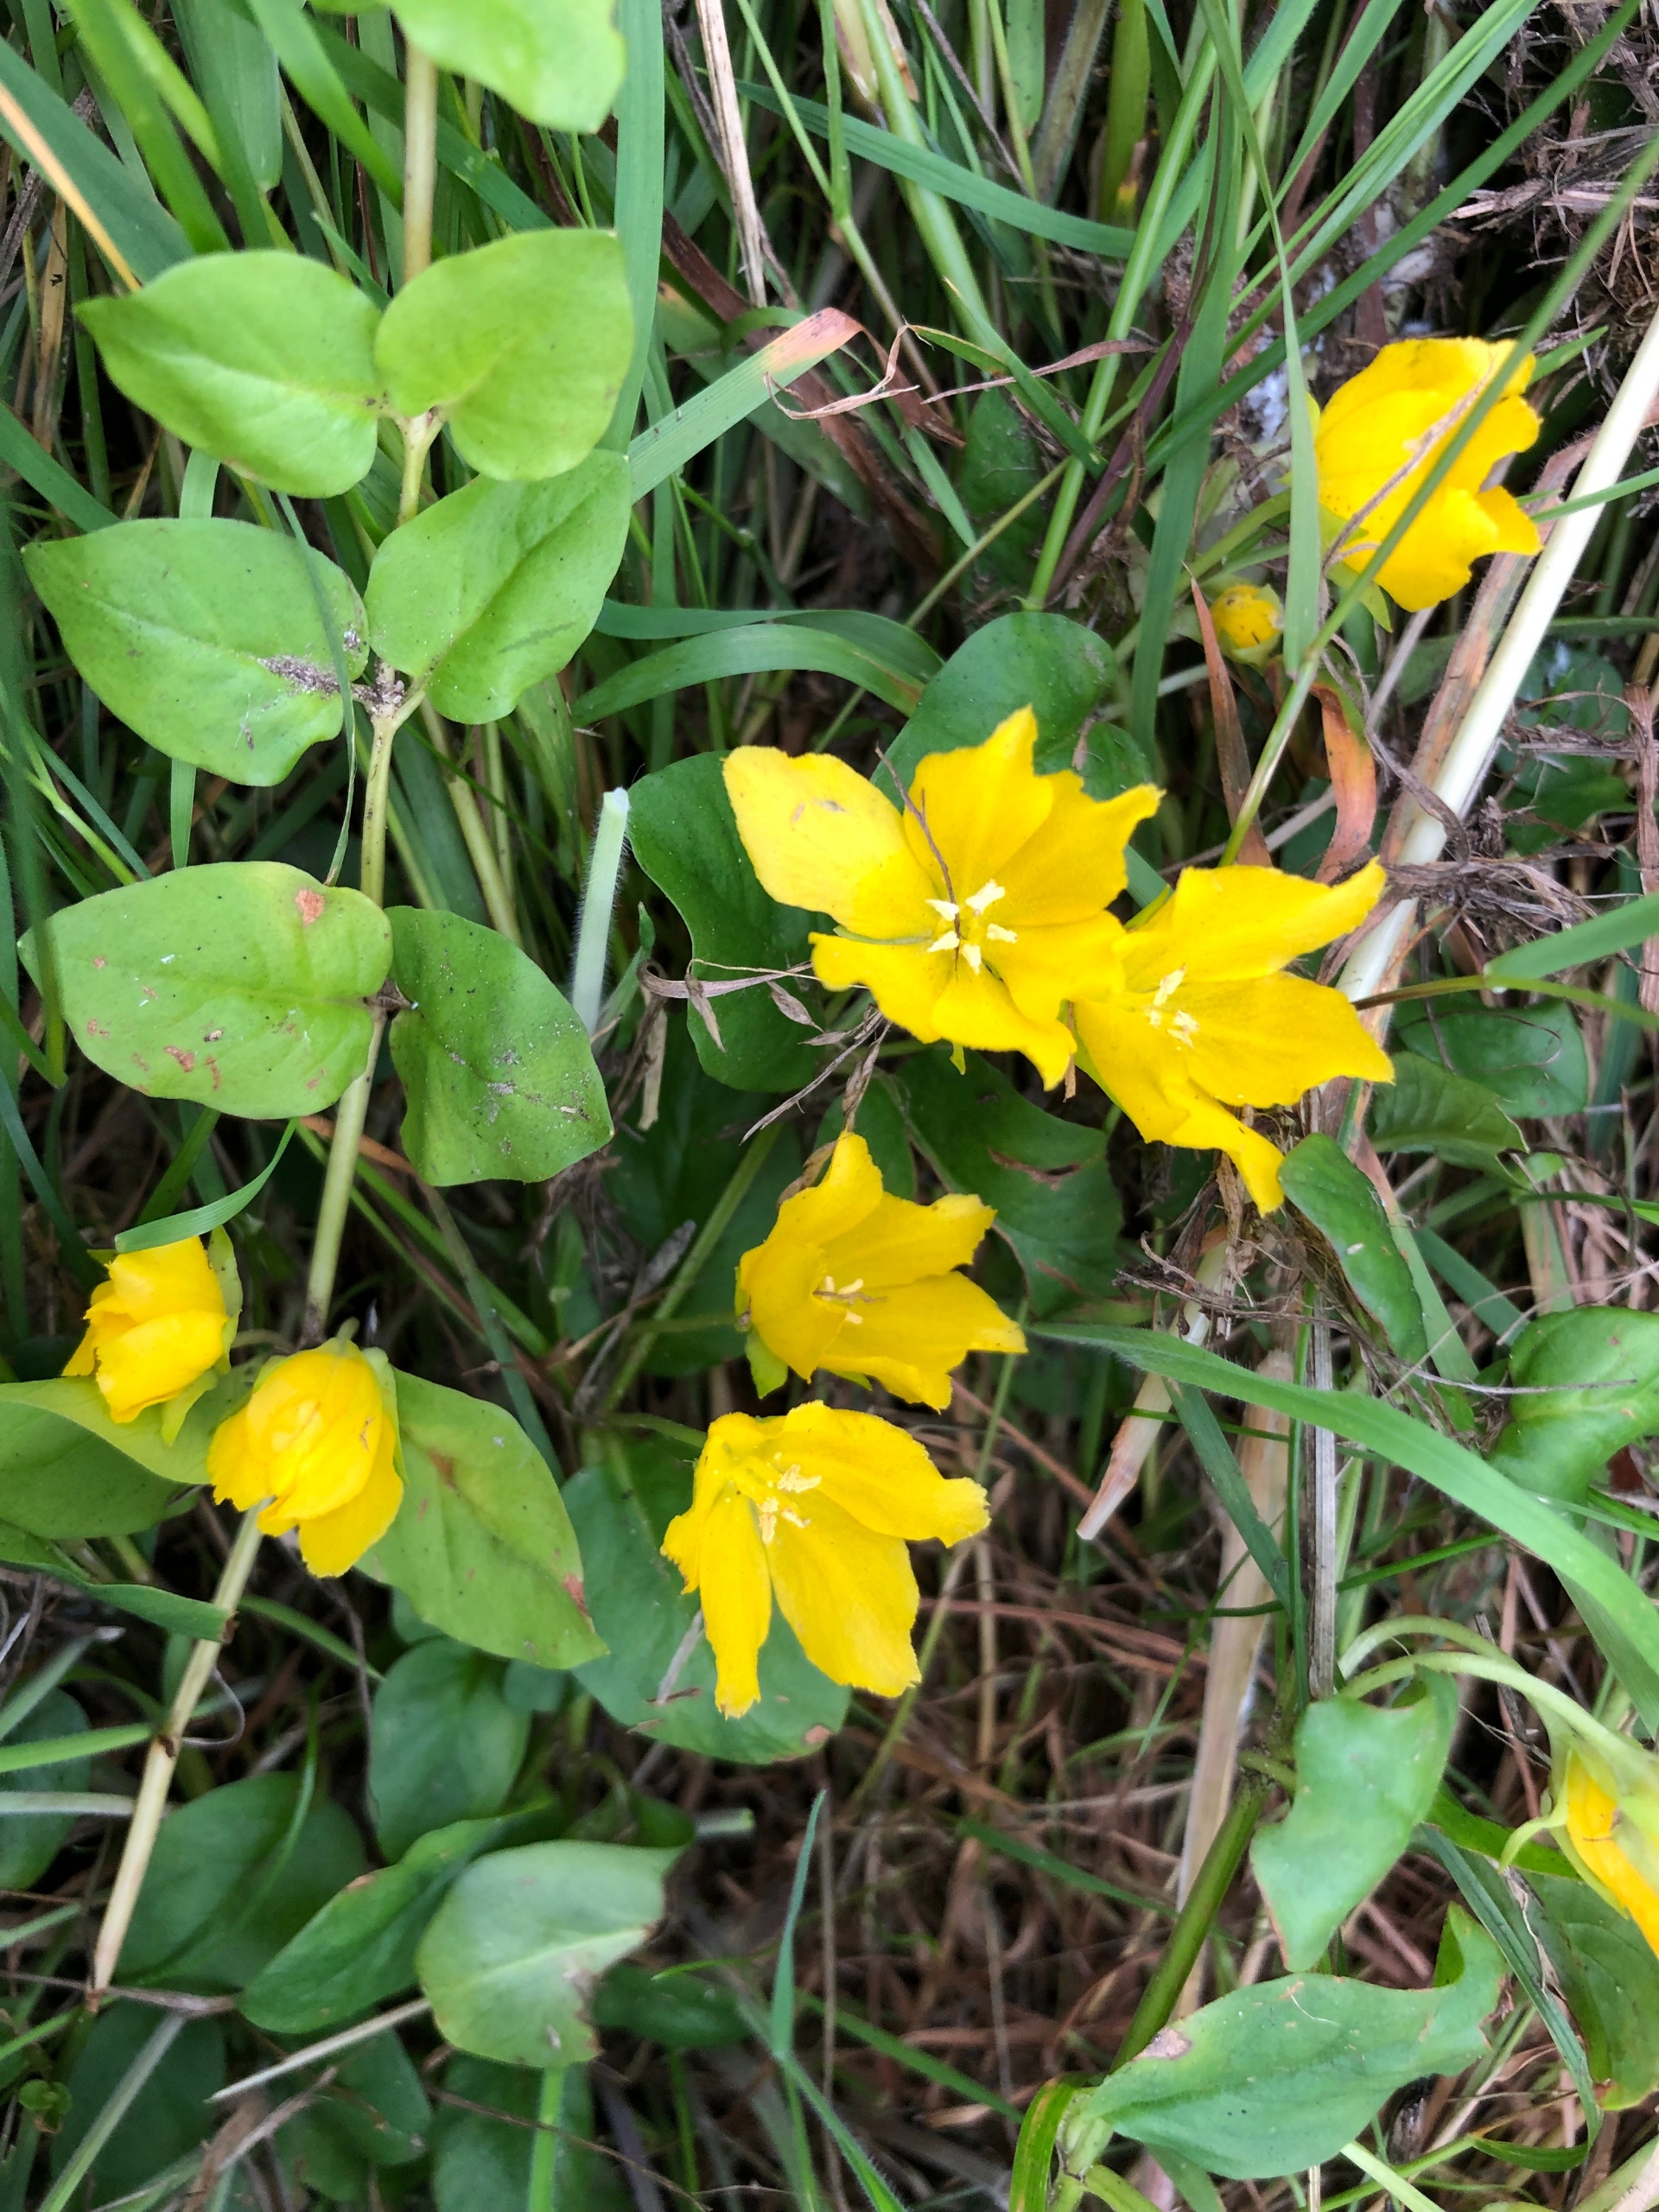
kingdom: Plantae
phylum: Tracheophyta
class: Magnoliopsida
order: Ericales
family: Primulaceae
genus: Lysimachia
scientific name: Lysimachia nummularia
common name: Pengebladet fredløs
